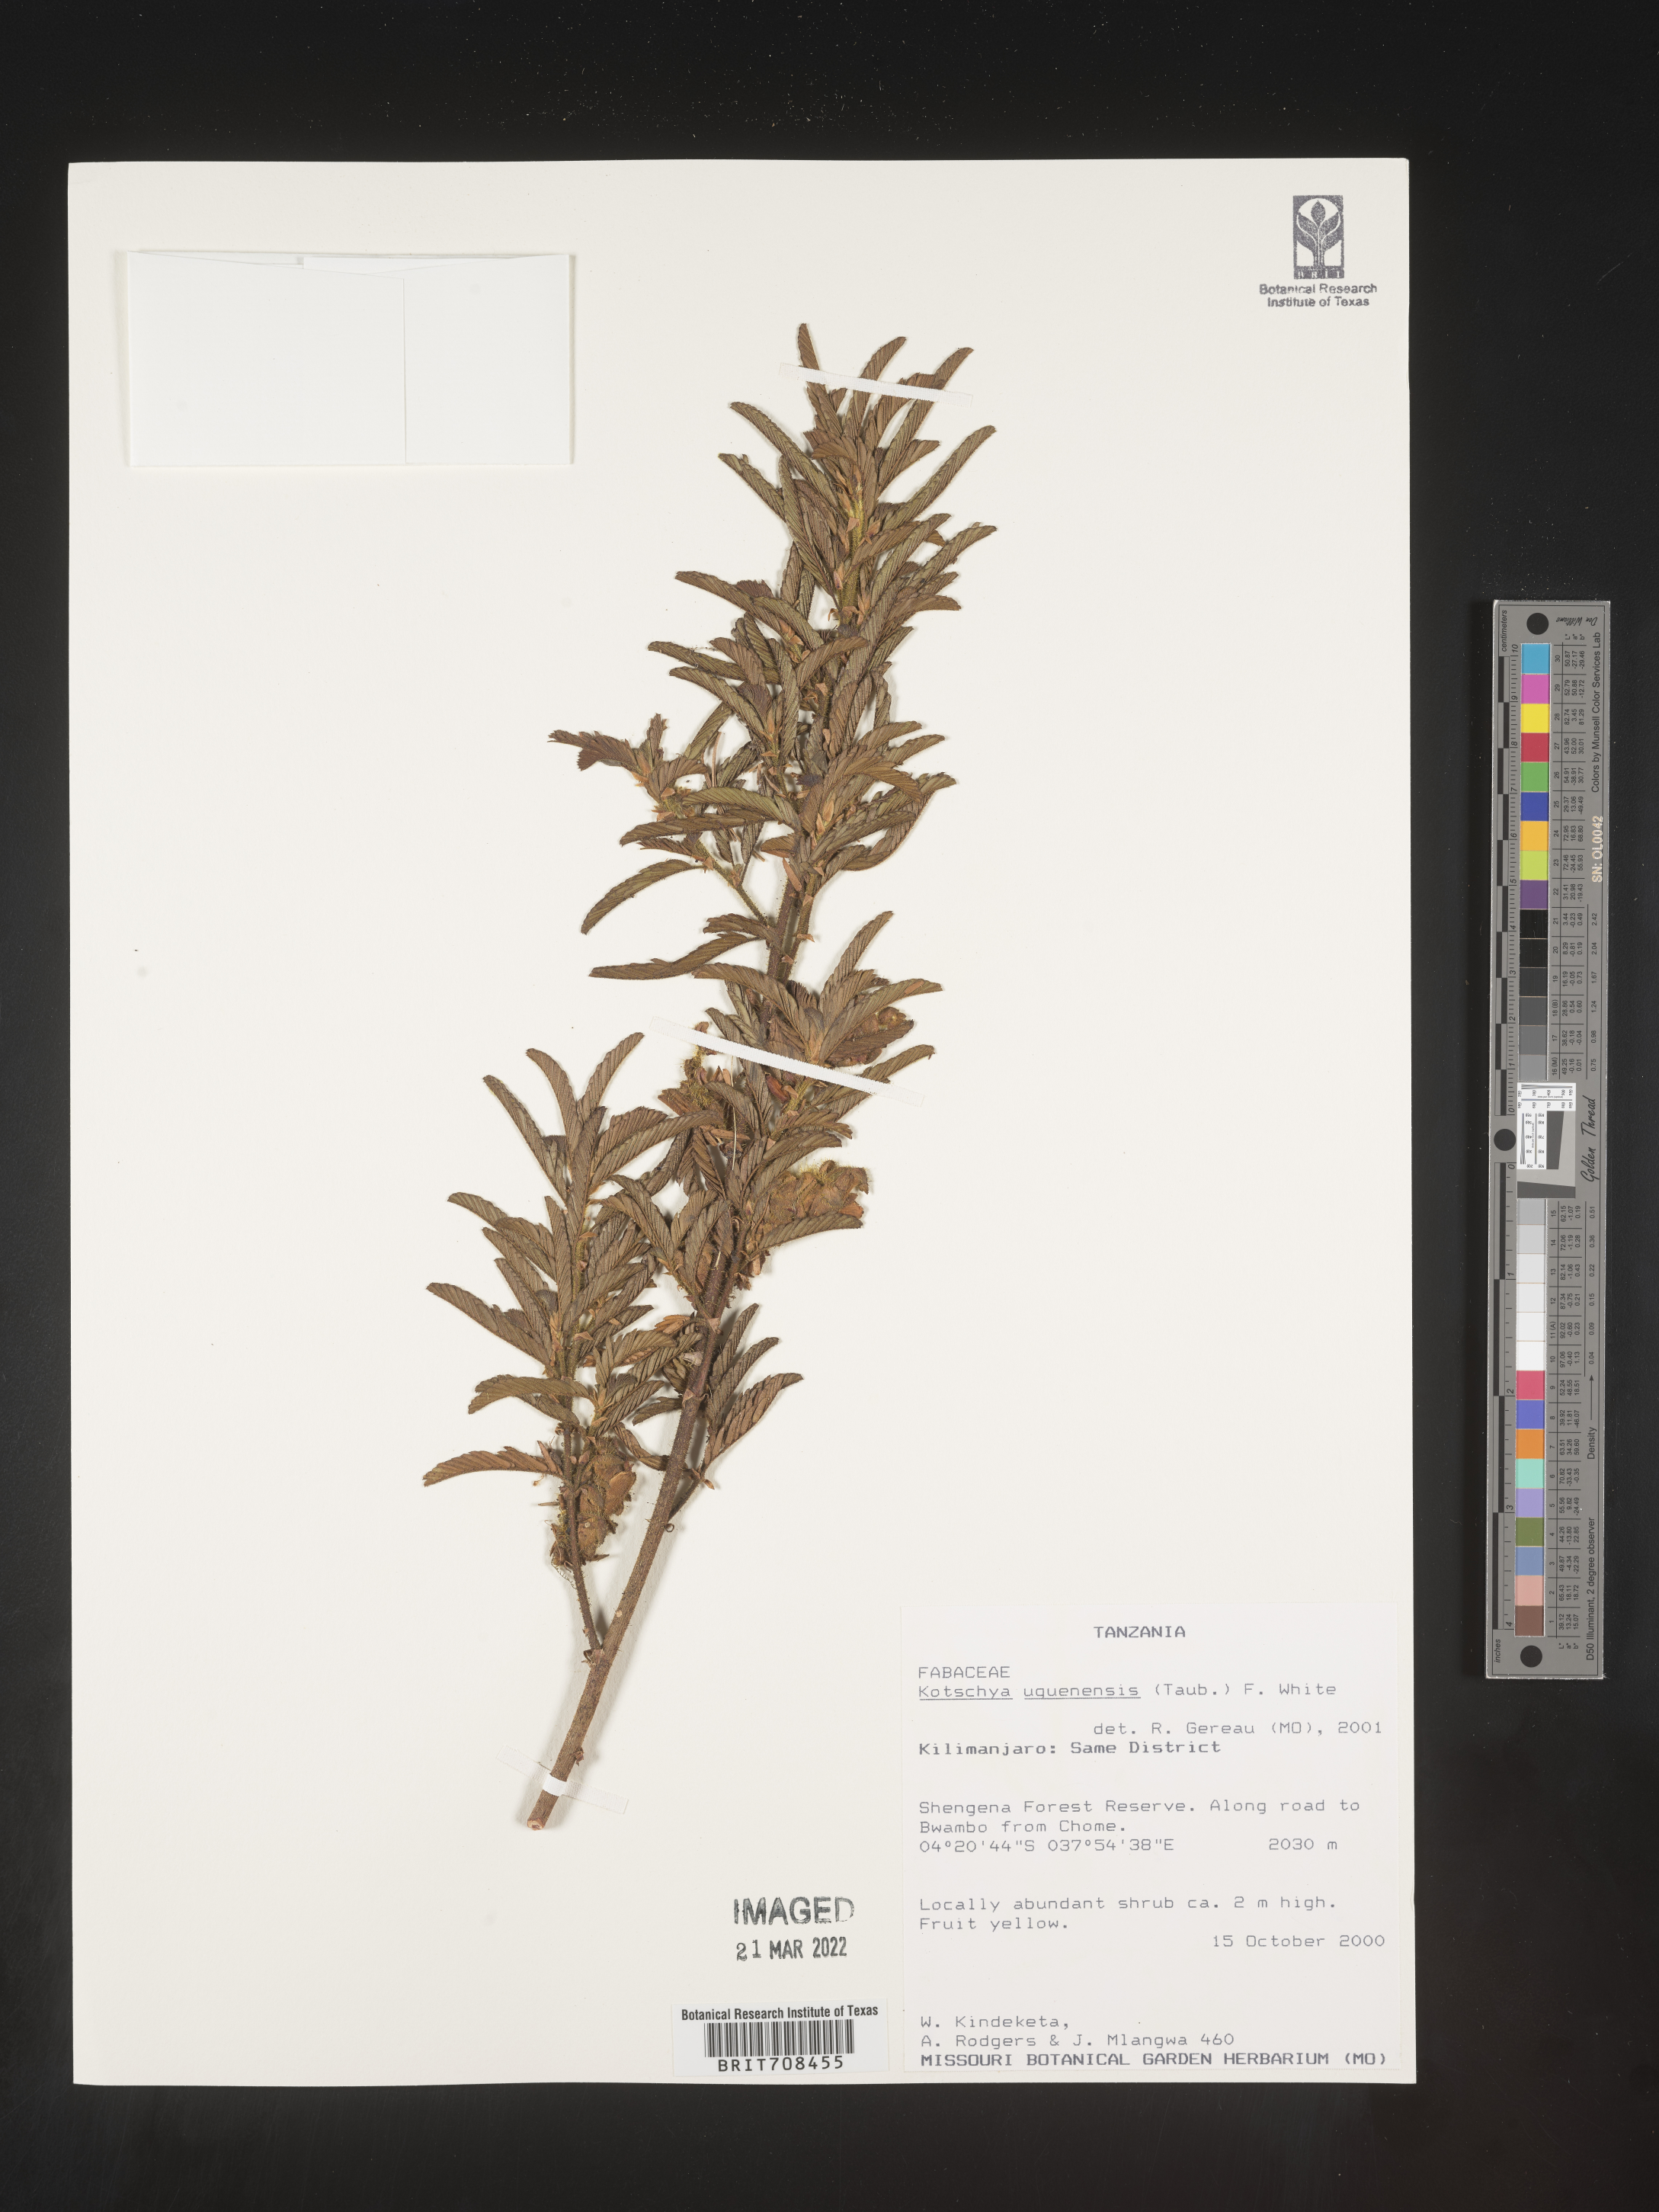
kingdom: Plantae
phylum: Tracheophyta
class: Magnoliopsida
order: Fabales
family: Fabaceae
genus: Kotschya
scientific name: Kotschya
